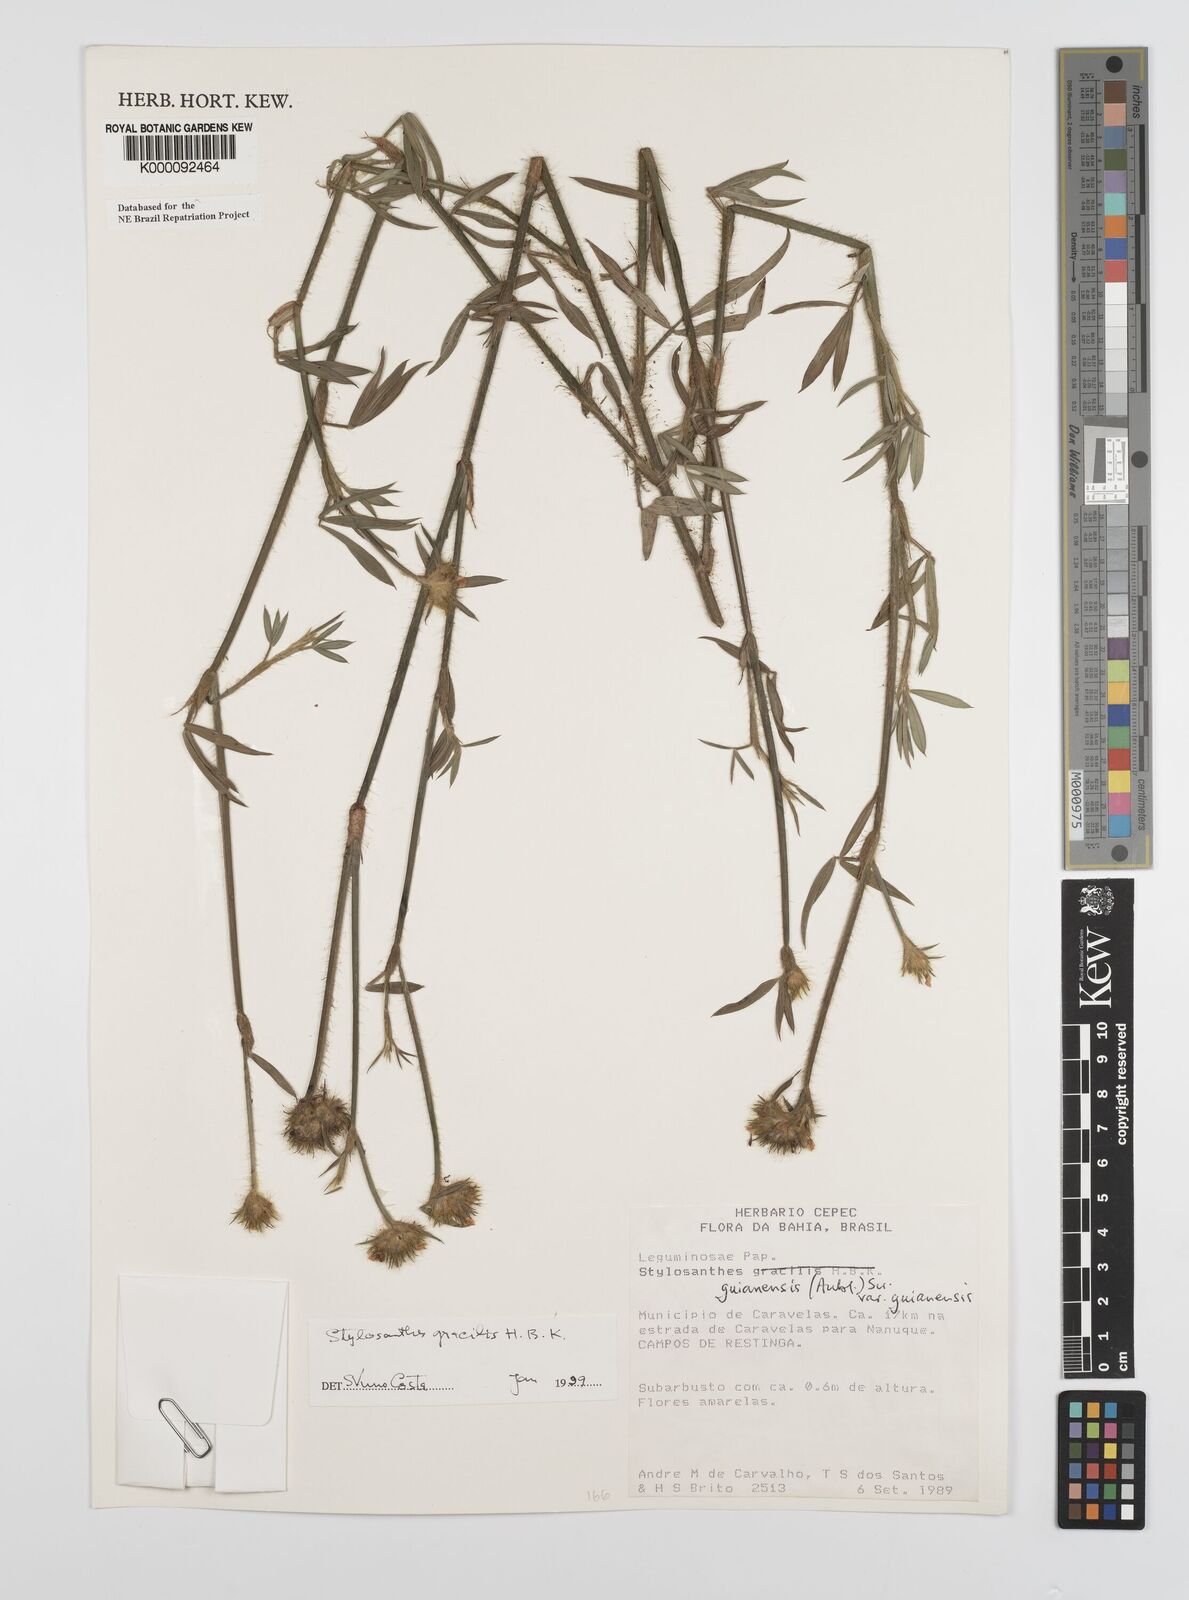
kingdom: Plantae
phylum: Tracheophyta
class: Magnoliopsida
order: Fabales
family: Fabaceae
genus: Stylosanthes
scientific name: Stylosanthes guianensis
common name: Pencil flower
